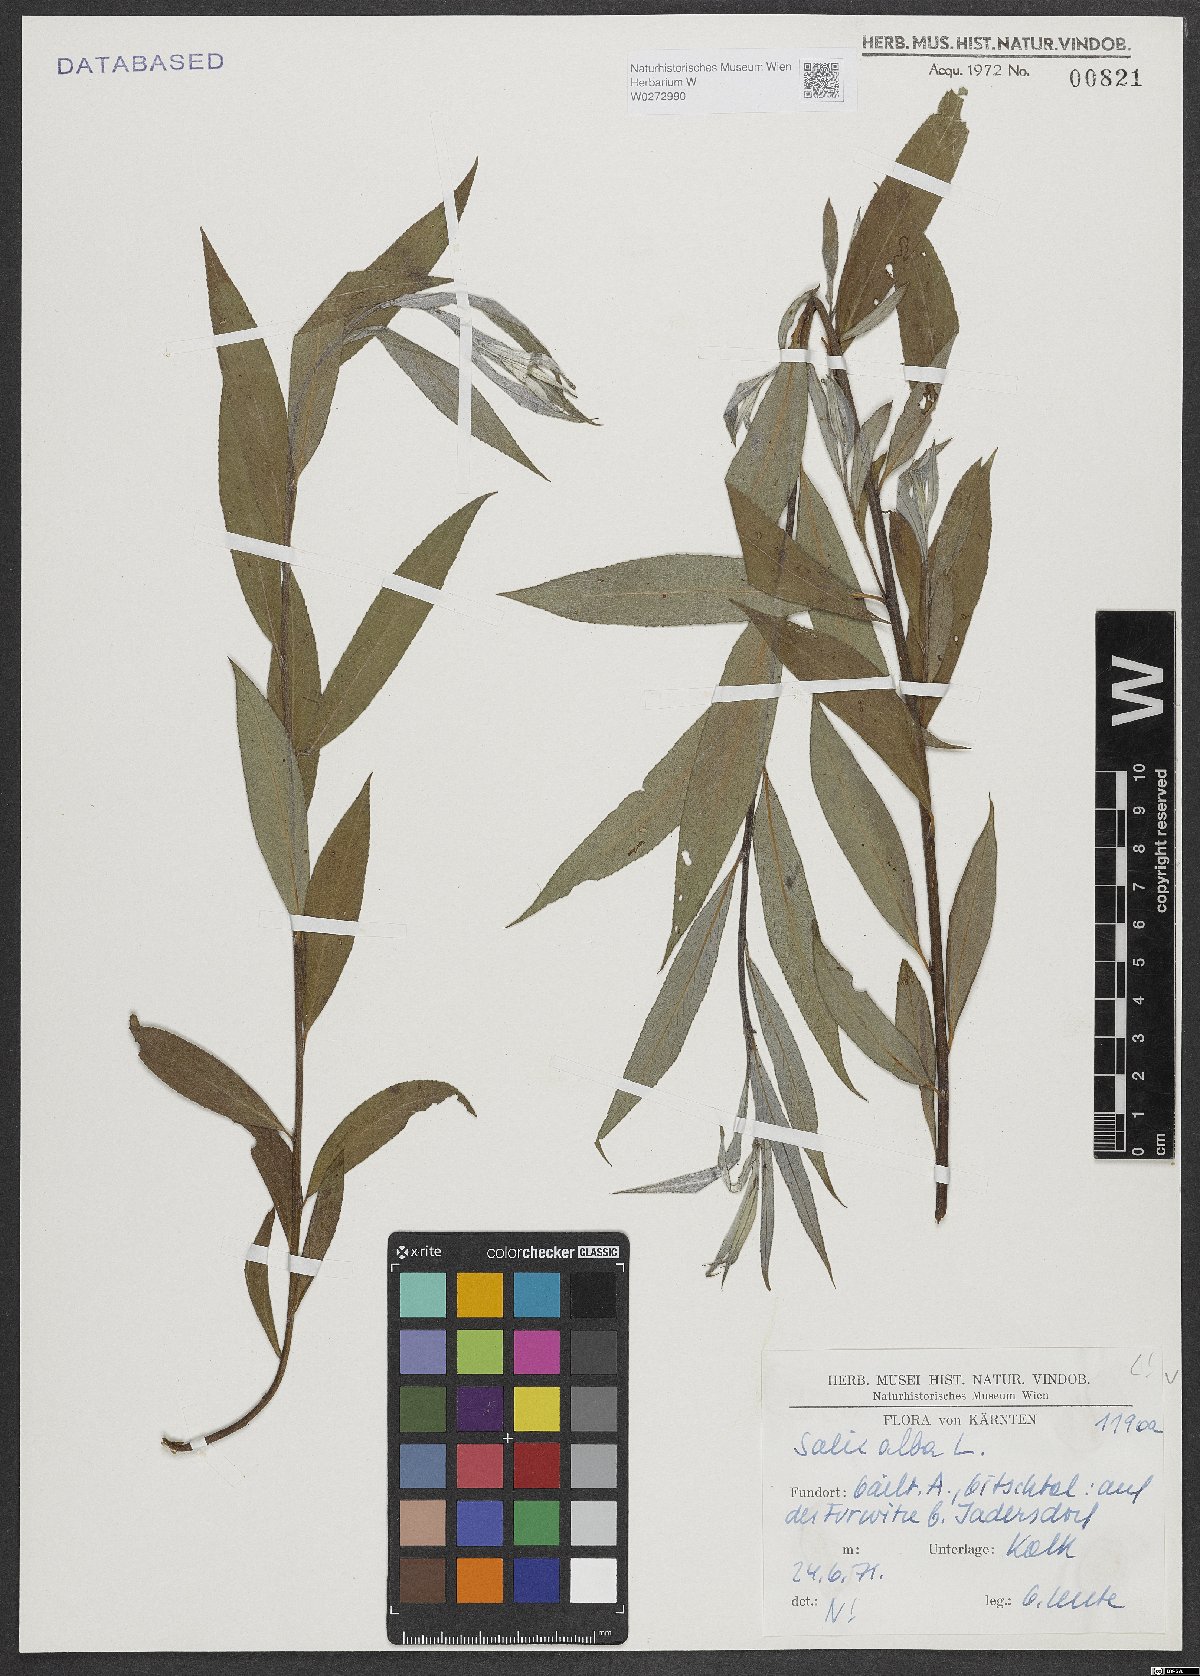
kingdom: Plantae
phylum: Tracheophyta
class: Magnoliopsida
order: Malpighiales
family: Salicaceae
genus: Salix
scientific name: Salix alba
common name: White willow
